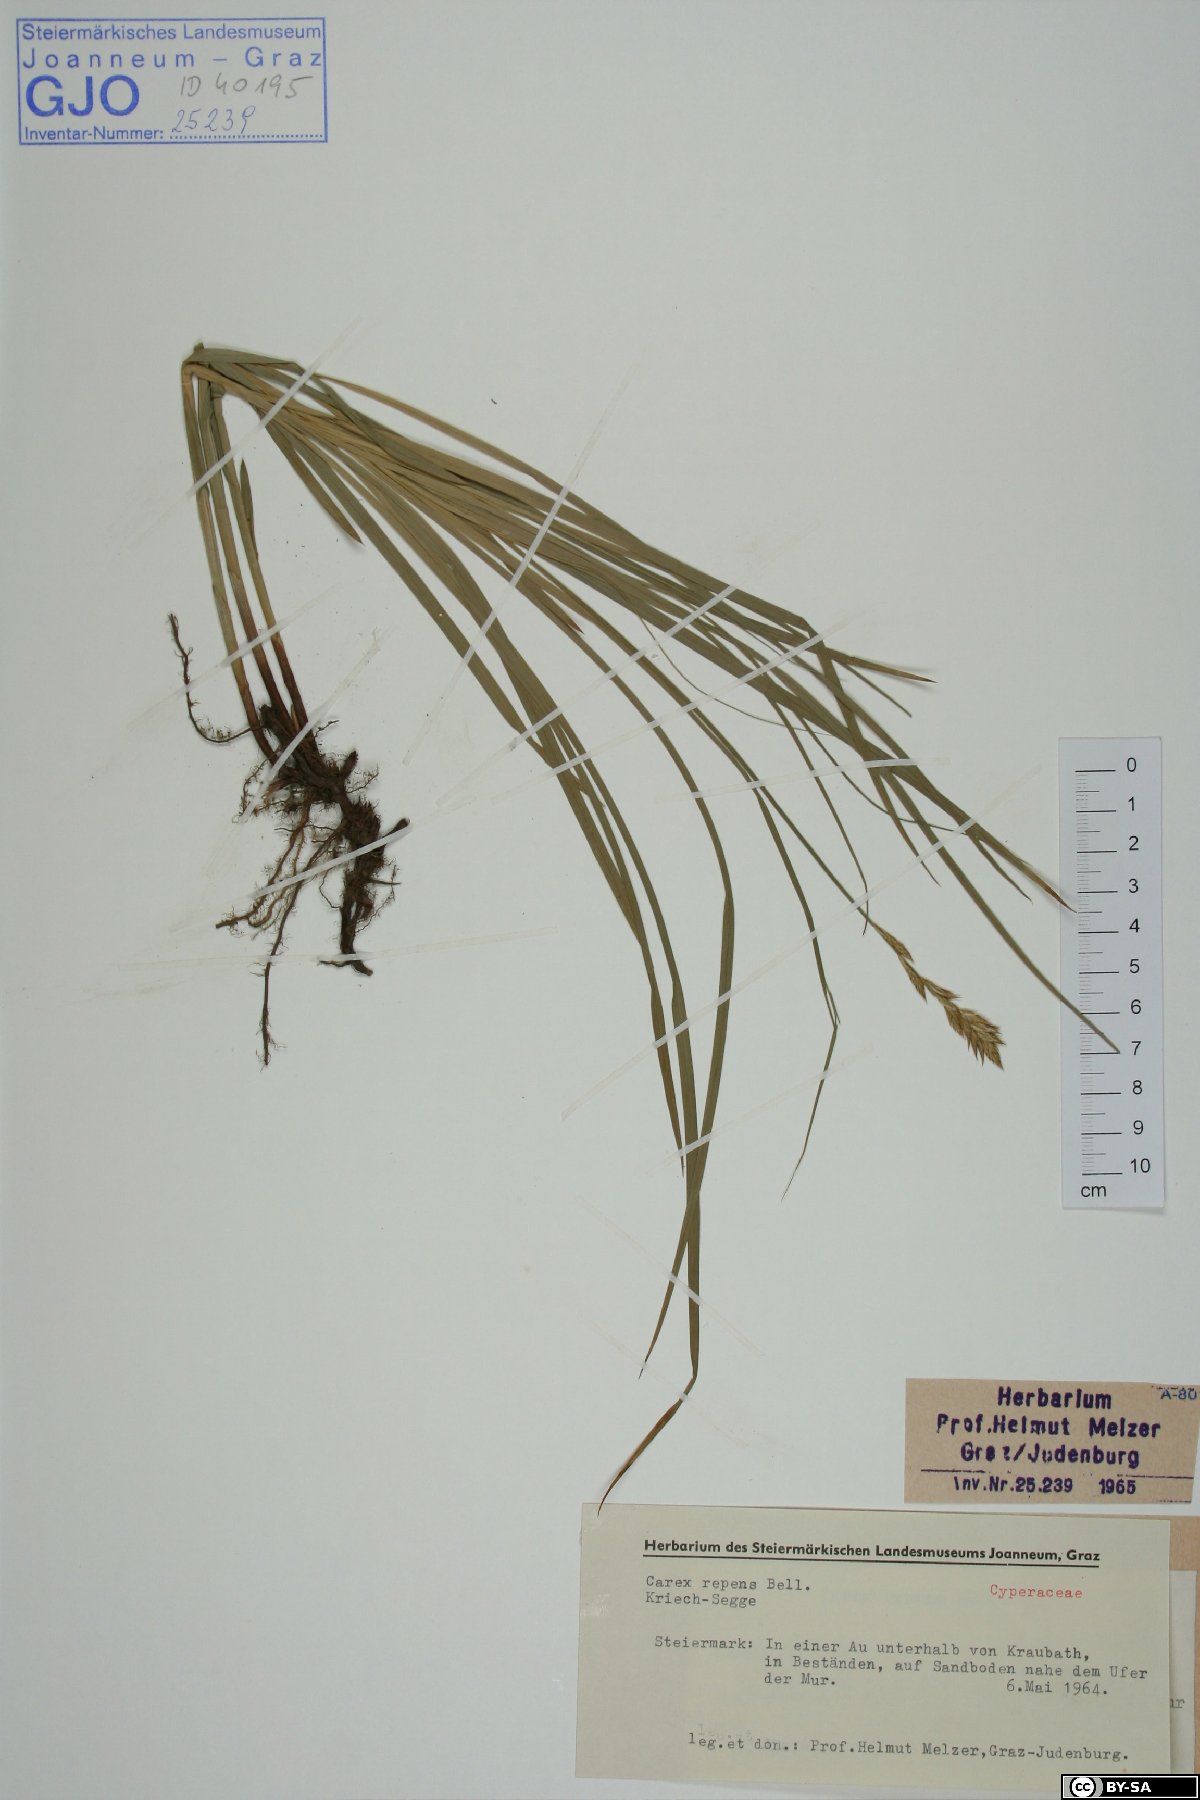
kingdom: Plantae
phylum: Tracheophyta
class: Liliopsida
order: Poales
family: Cyperaceae
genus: Carex
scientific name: Carex repens
